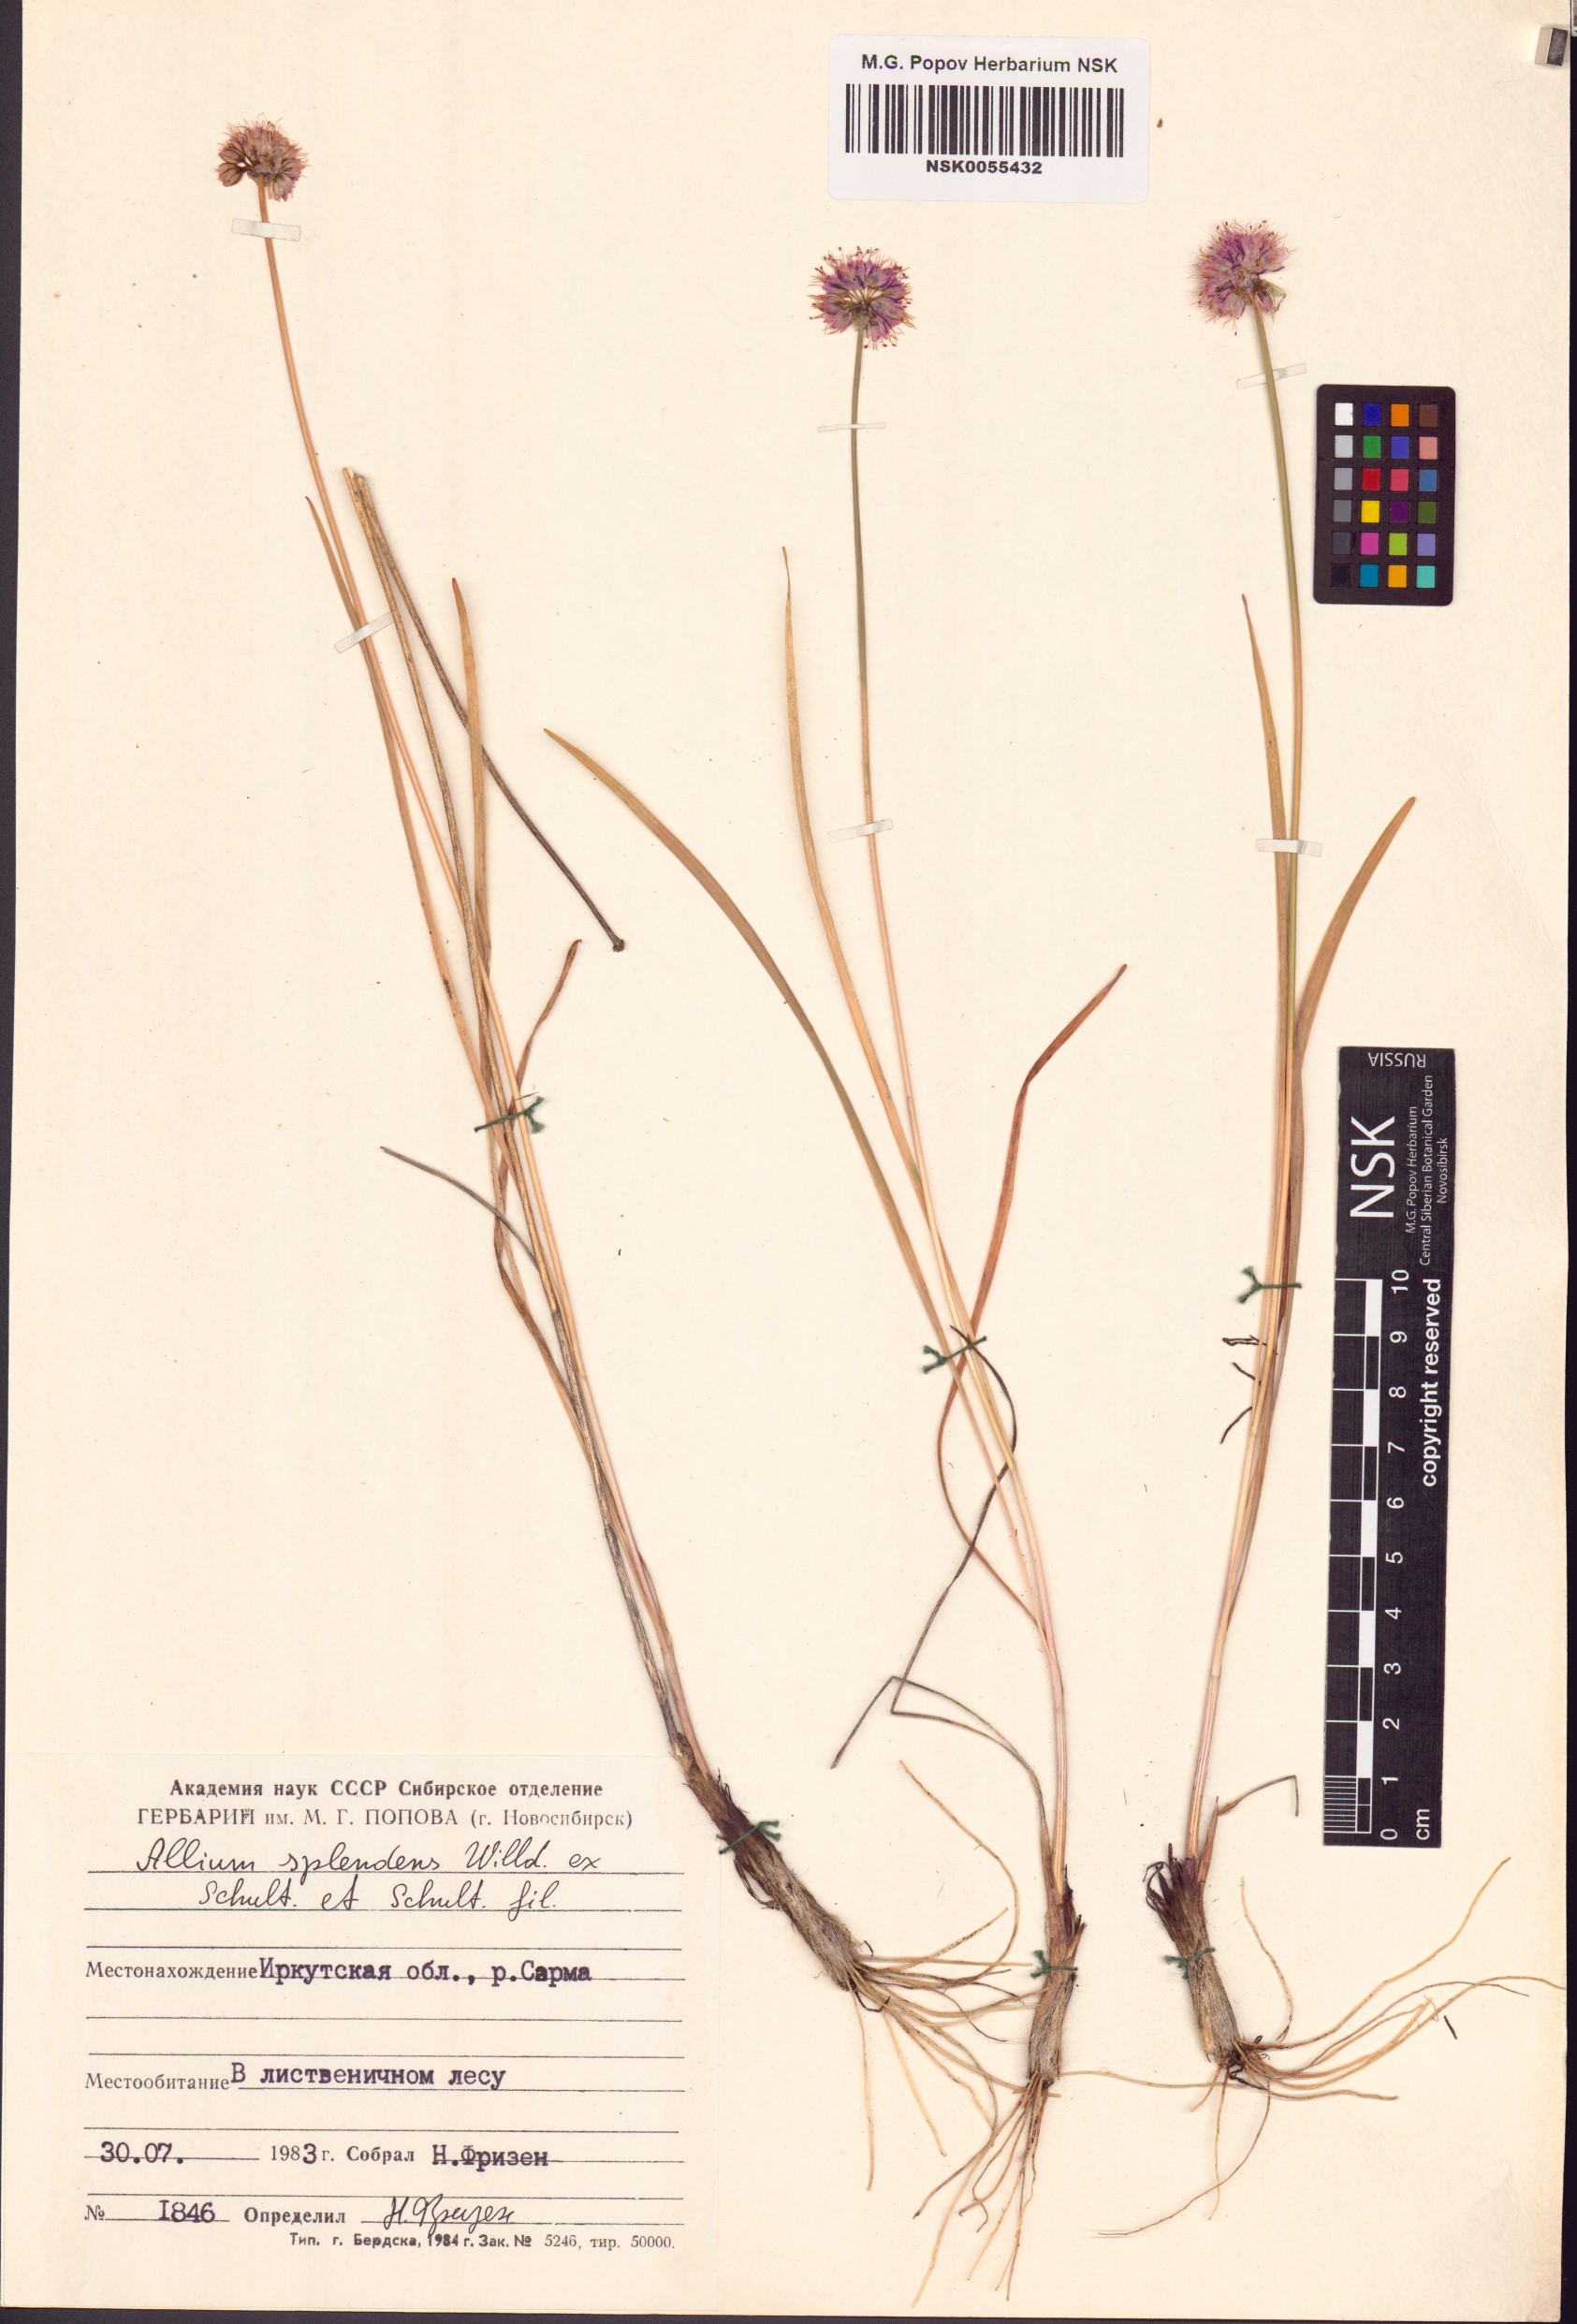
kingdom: Plantae
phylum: Tracheophyta
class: Liliopsida
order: Asparagales
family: Amaryllidaceae
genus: Allium
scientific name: Allium splendens
